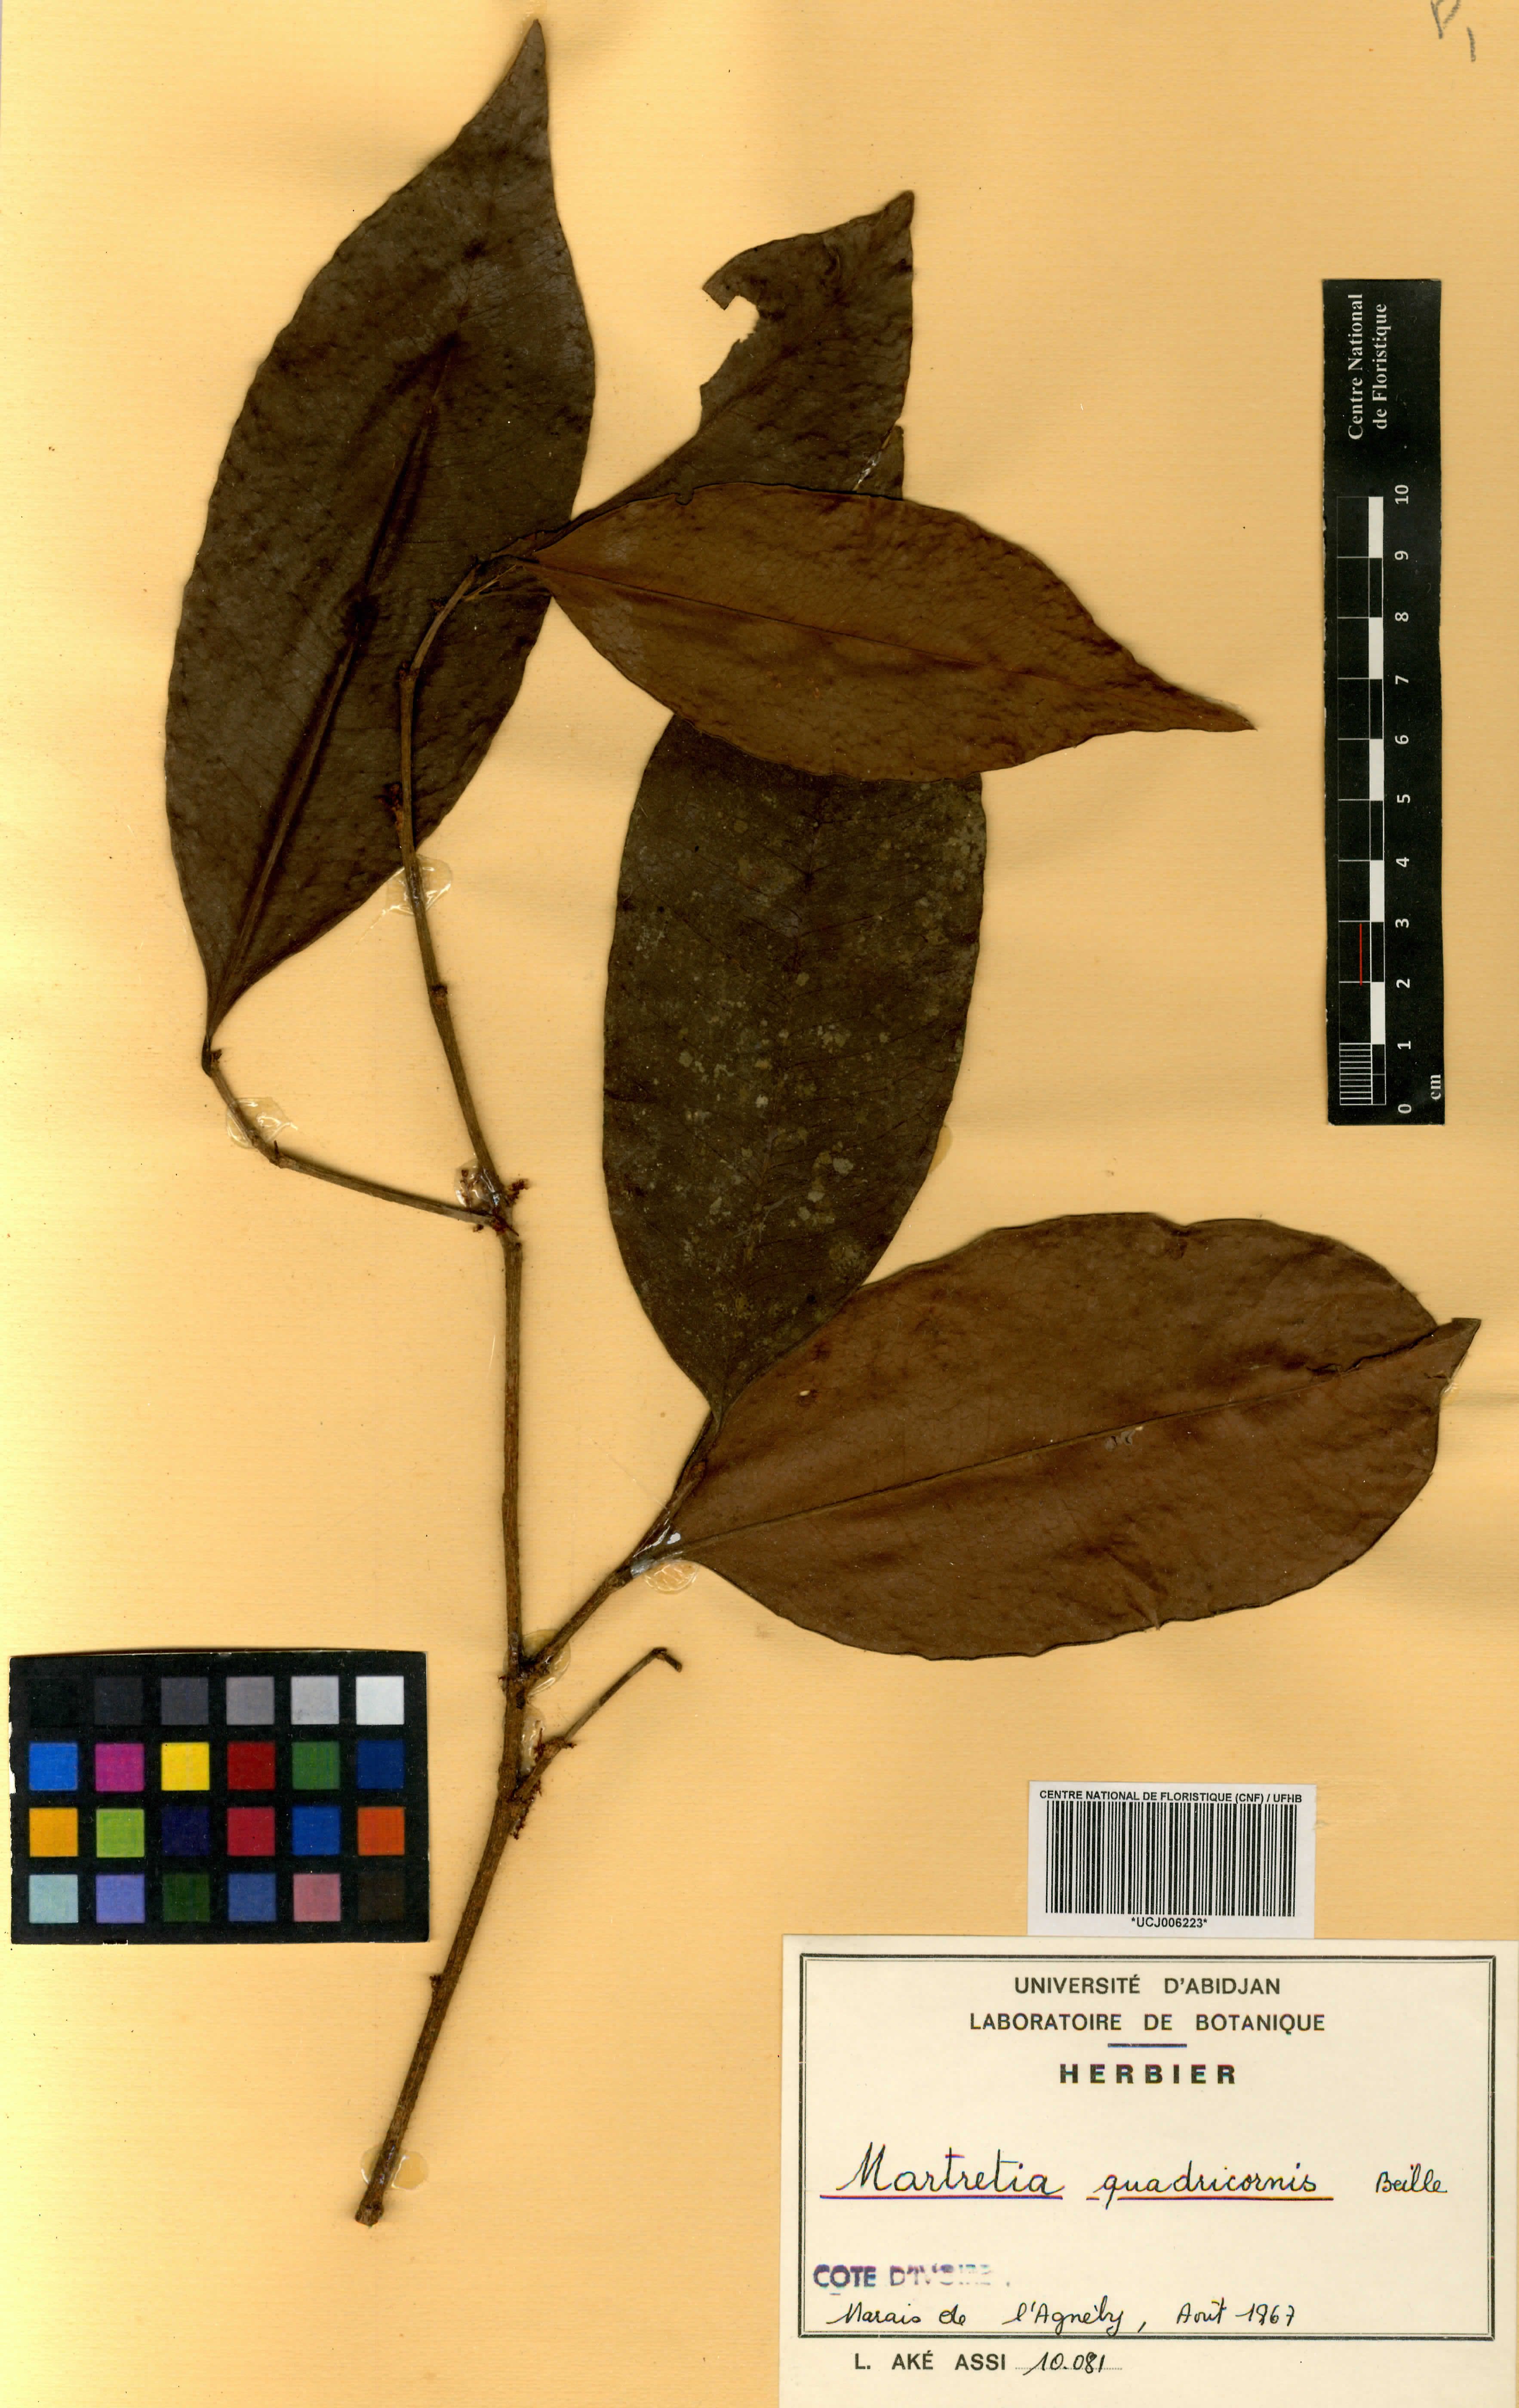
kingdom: Plantae
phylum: Tracheophyta
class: Magnoliopsida
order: Malpighiales
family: Phyllanthaceae
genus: Martretia
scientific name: Martretia quadricornis
